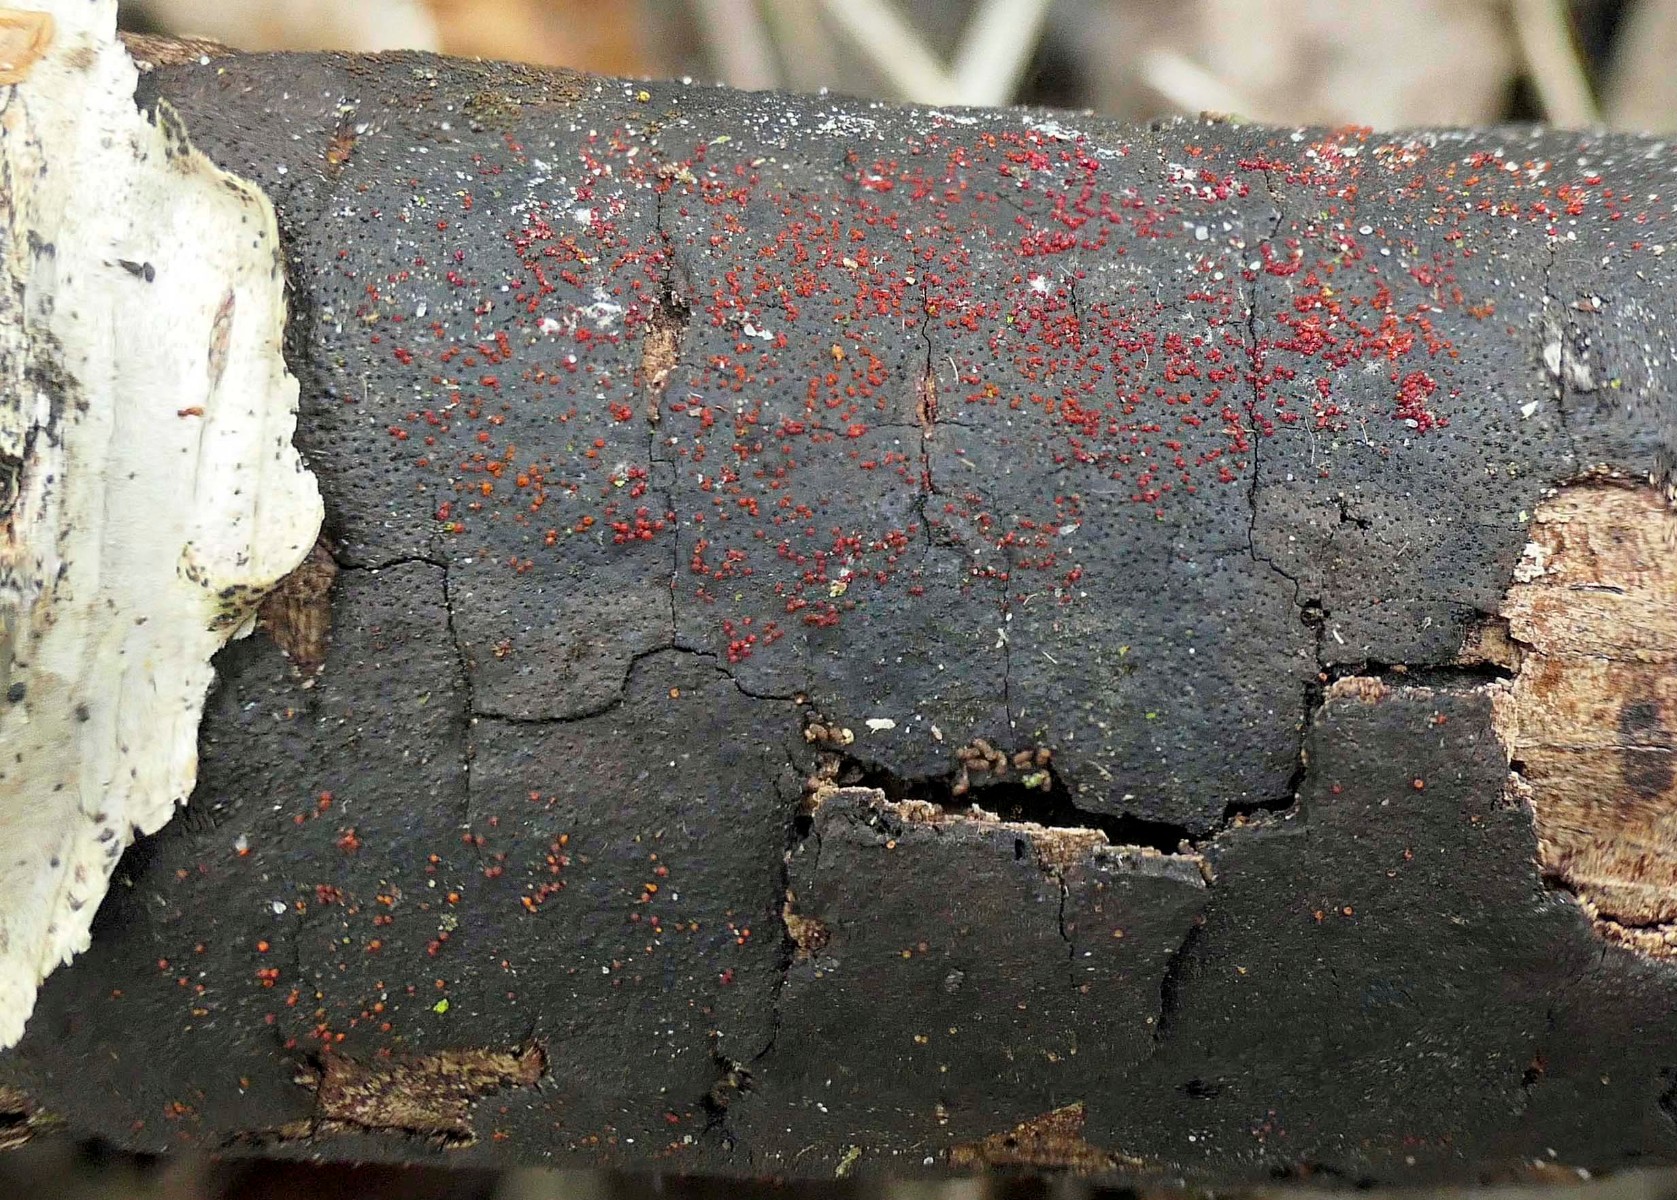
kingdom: Fungi
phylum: Ascomycota
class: Sordariomycetes
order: Hypocreales
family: Nectriaceae
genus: Dialonectria
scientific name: Dialonectria episphaeria
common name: kulskorpe-cinnobersvamp
